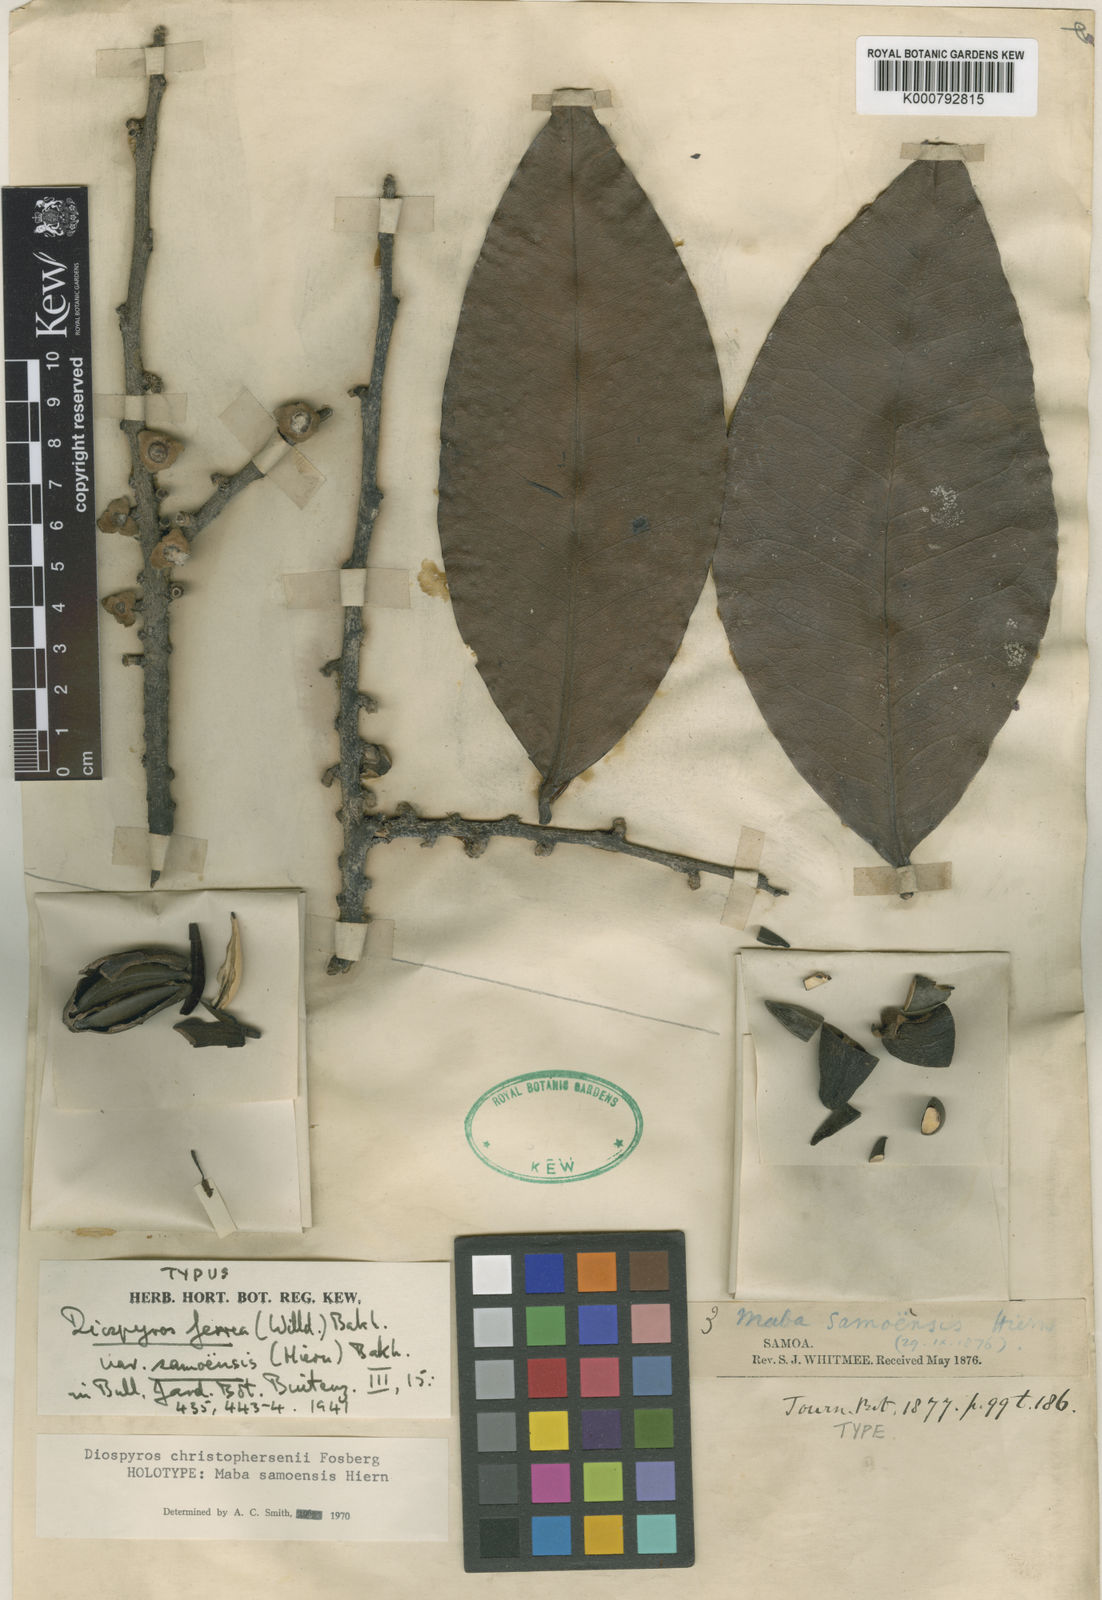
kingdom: Plantae
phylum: Tracheophyta
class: Magnoliopsida
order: Ericales
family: Ebenaceae
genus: Diospyros
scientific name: Diospyros christophersenii
